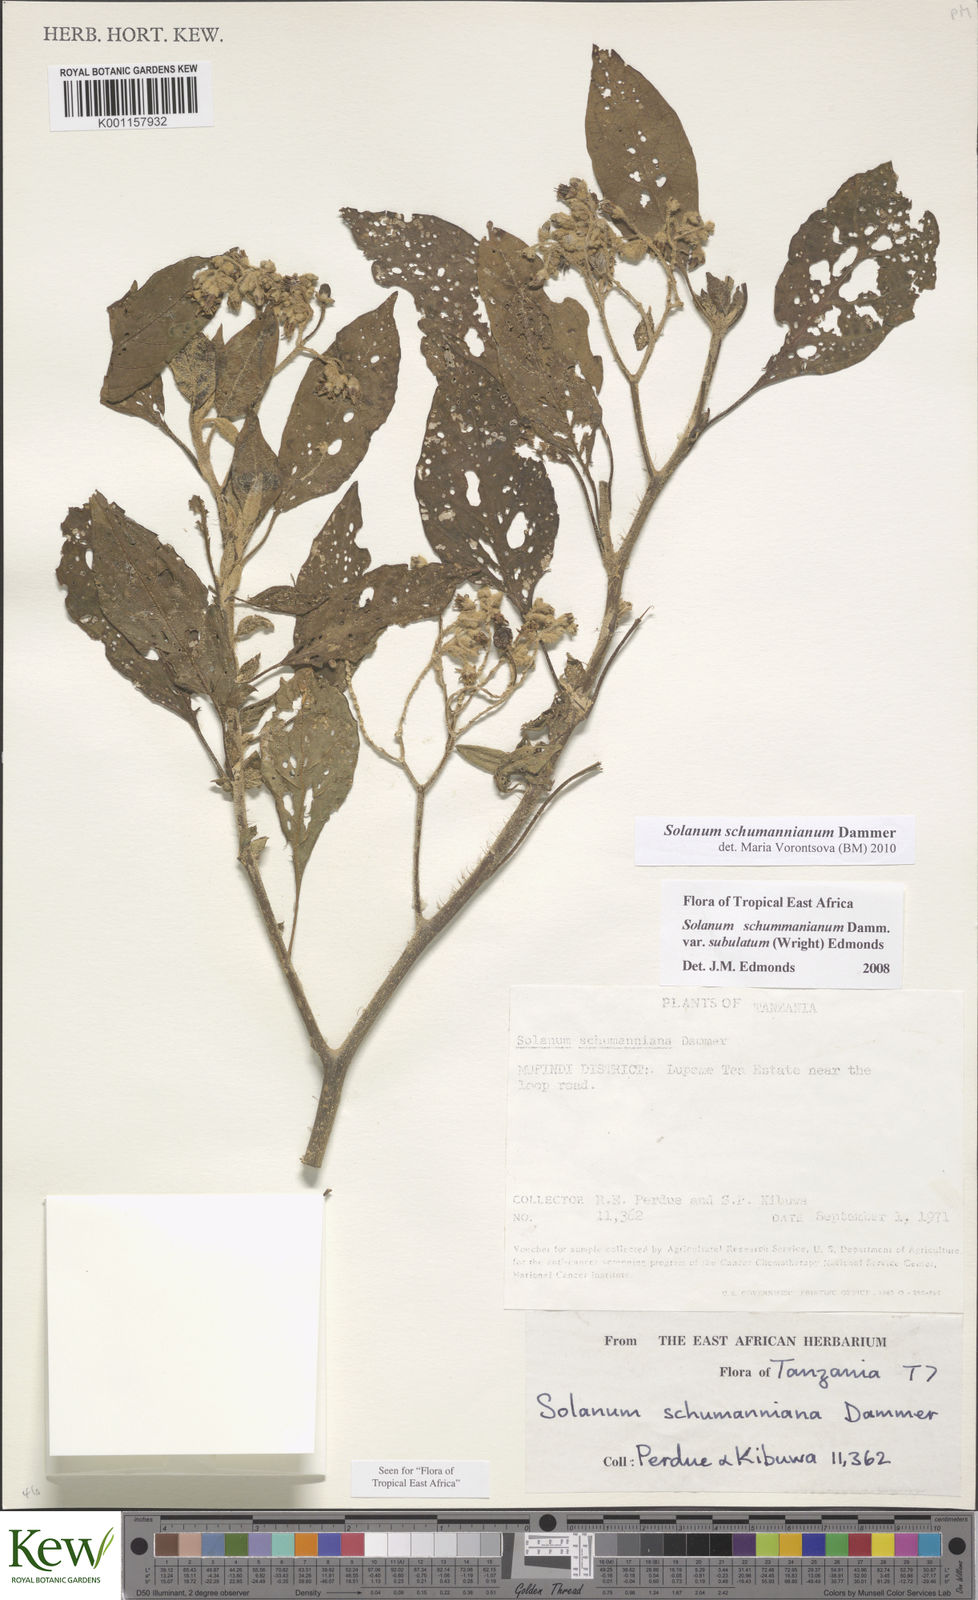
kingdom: Plantae
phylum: Tracheophyta
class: Magnoliopsida
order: Solanales
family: Solanaceae
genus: Solanum
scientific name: Solanum schumannianum
